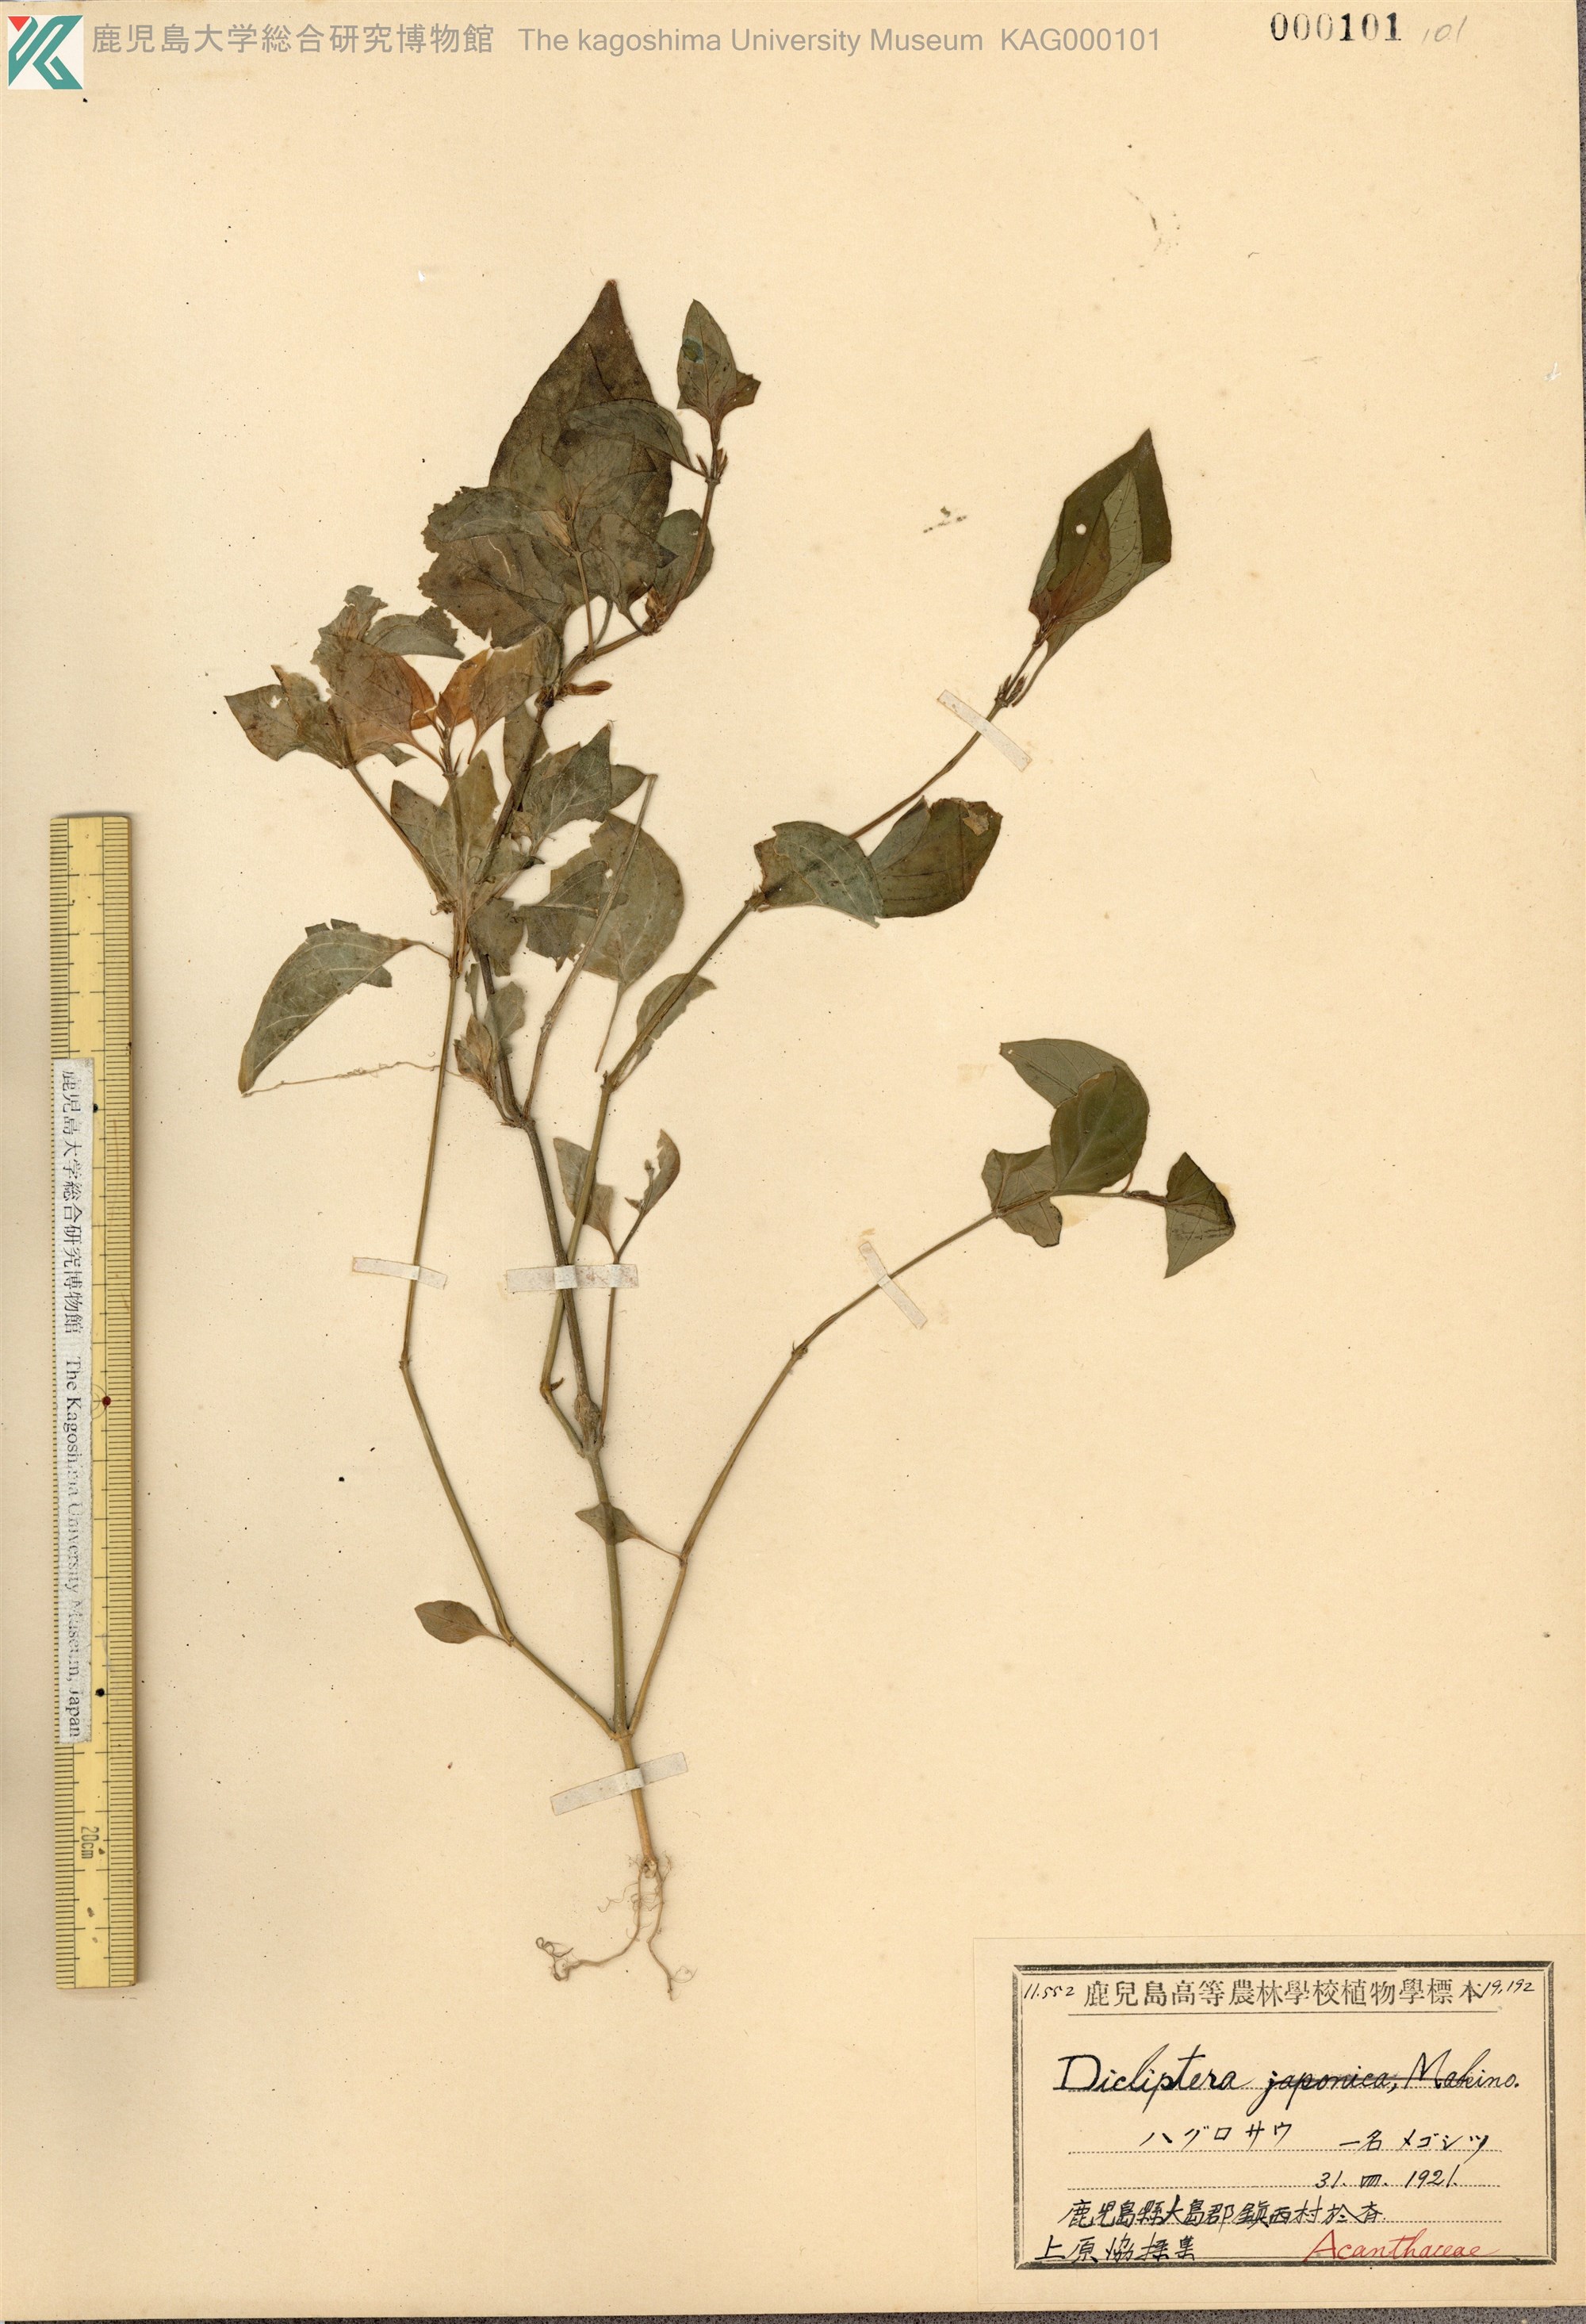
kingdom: Plantae
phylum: Tracheophyta
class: Magnoliopsida
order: Lamiales
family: Acanthaceae
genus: Dicliptera
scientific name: Dicliptera chinensis
